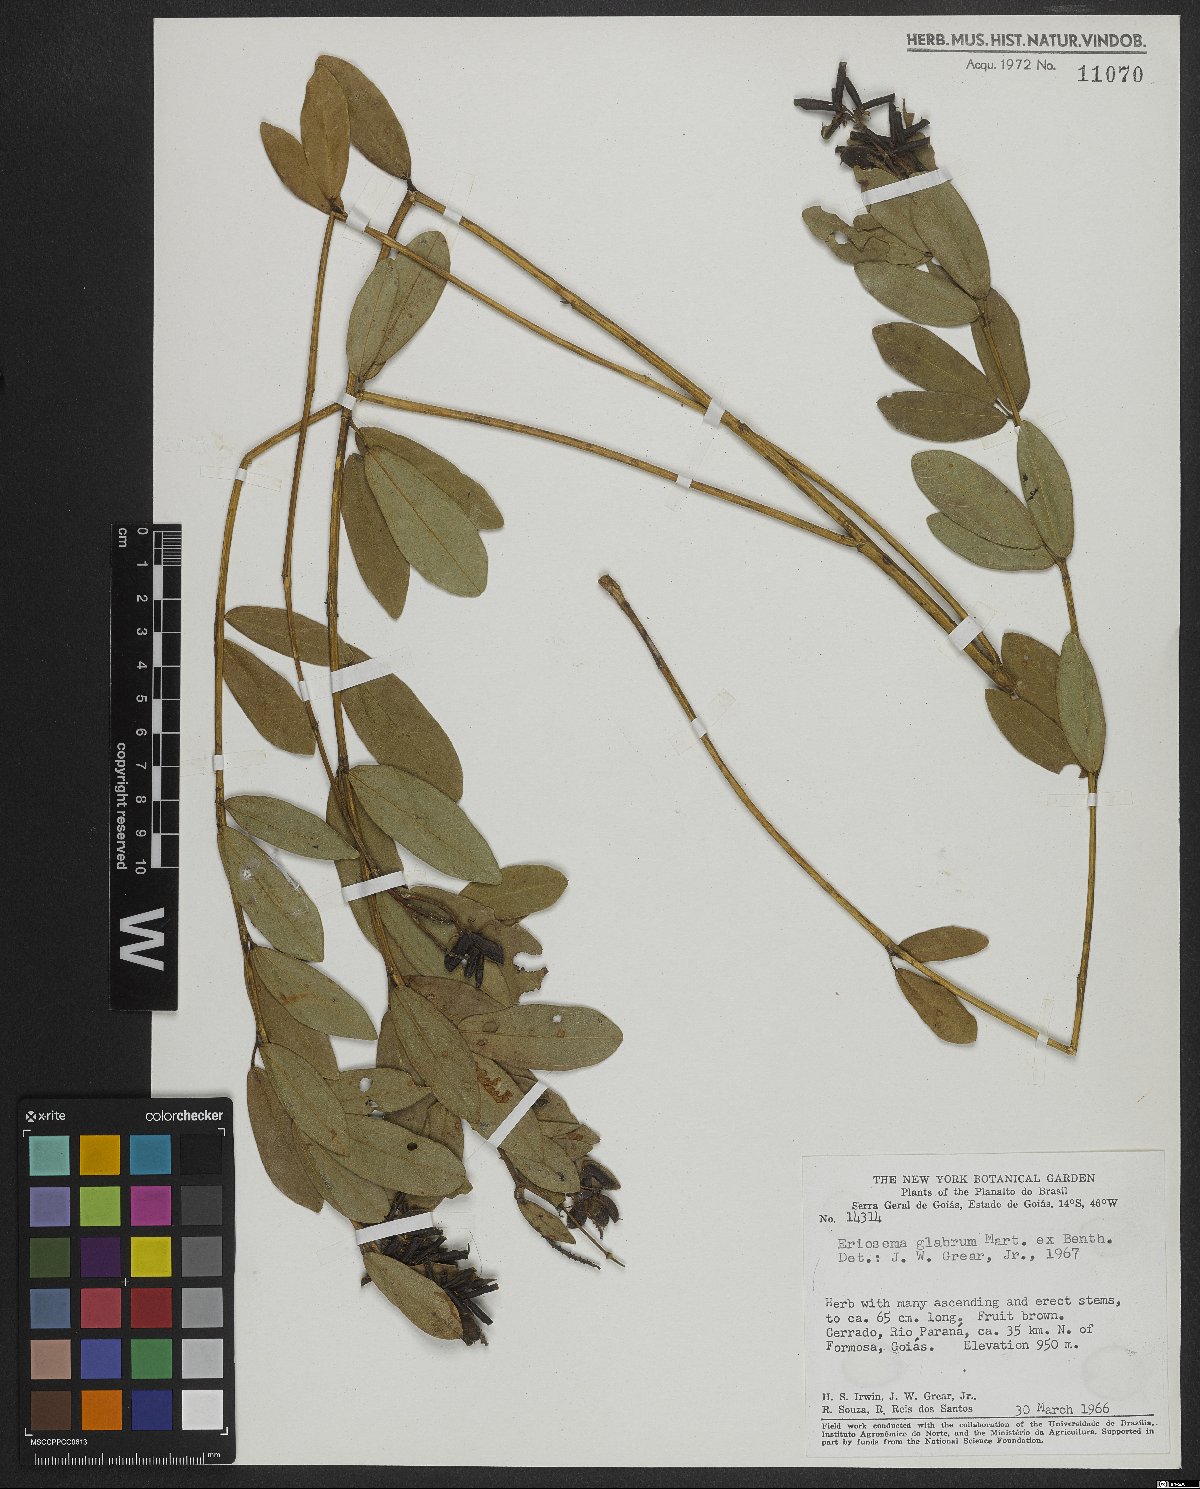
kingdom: Plantae
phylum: Tracheophyta
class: Magnoliopsida
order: Fabales
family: Fabaceae
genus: Eriosema
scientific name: Eriosema glabrum
